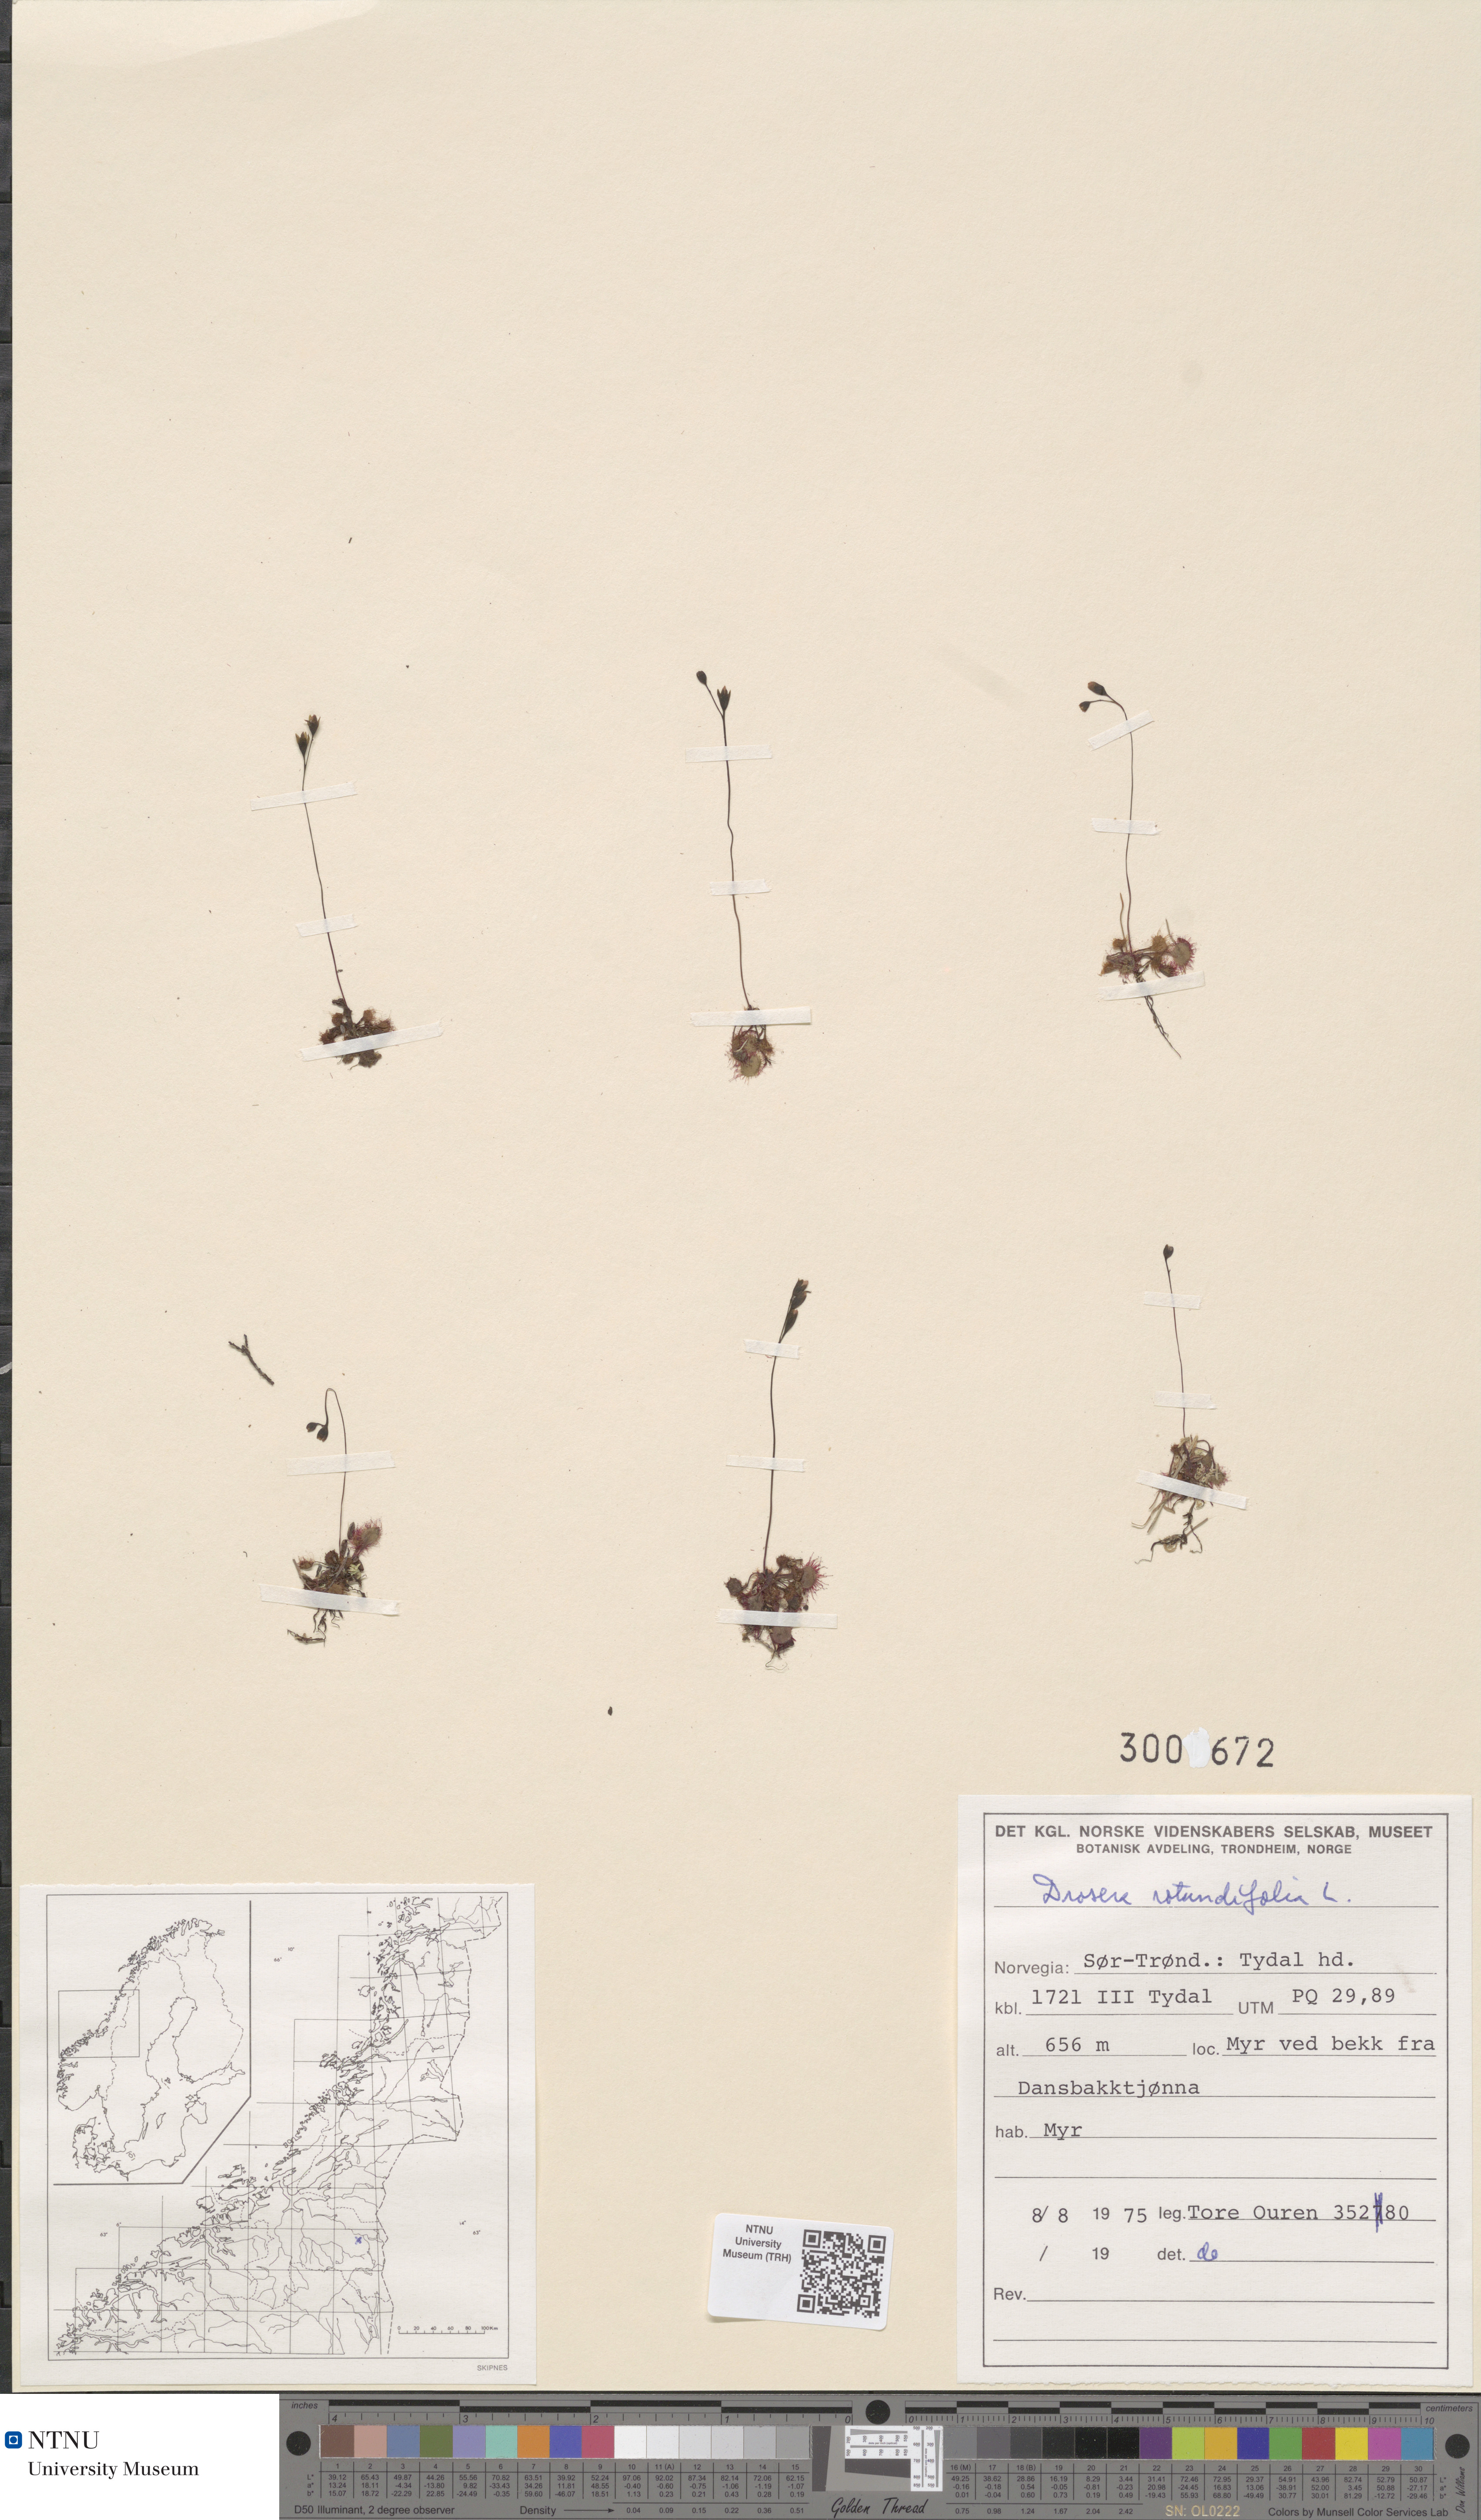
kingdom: Plantae
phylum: Tracheophyta
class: Magnoliopsida
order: Caryophyllales
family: Droseraceae
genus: Drosera
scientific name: Drosera rotundifolia
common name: Round-leaved sundew
